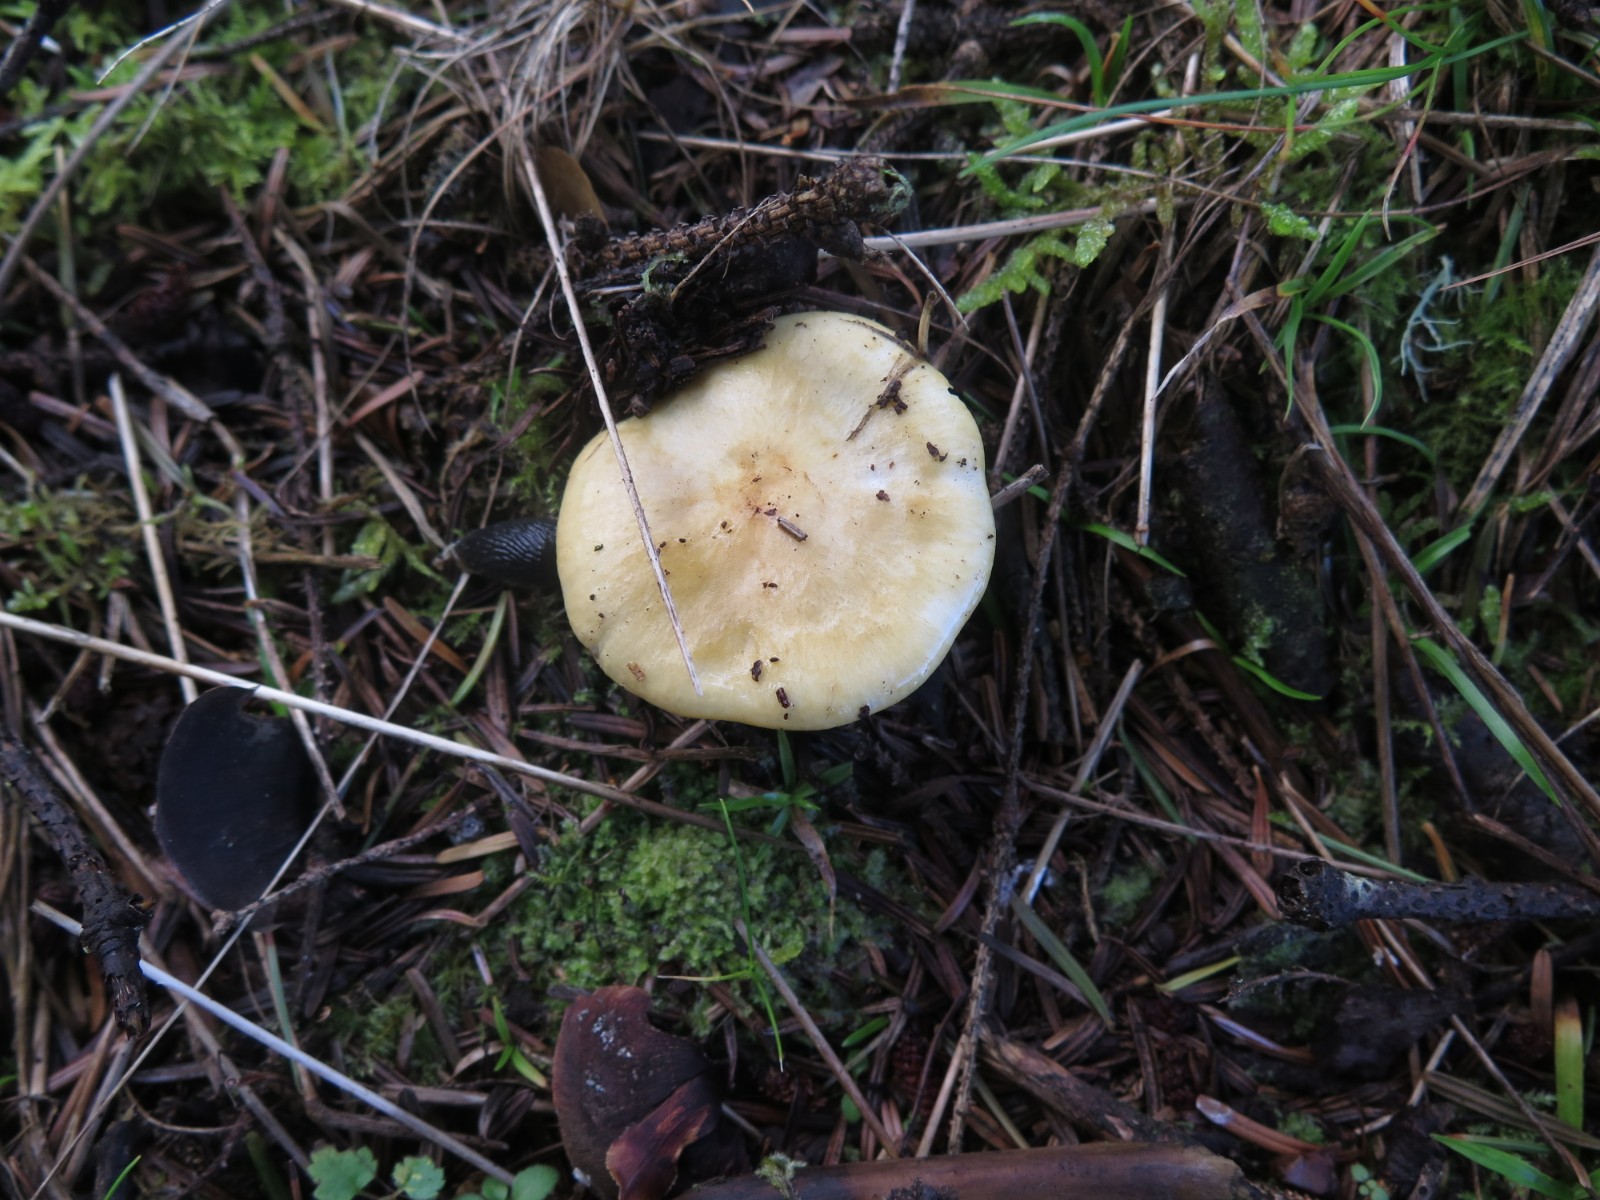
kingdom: Fungi
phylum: Basidiomycota
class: Agaricomycetes
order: Russulales
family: Russulaceae
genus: Russula
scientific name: Russula ochroleuca
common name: okkergul skørhat
